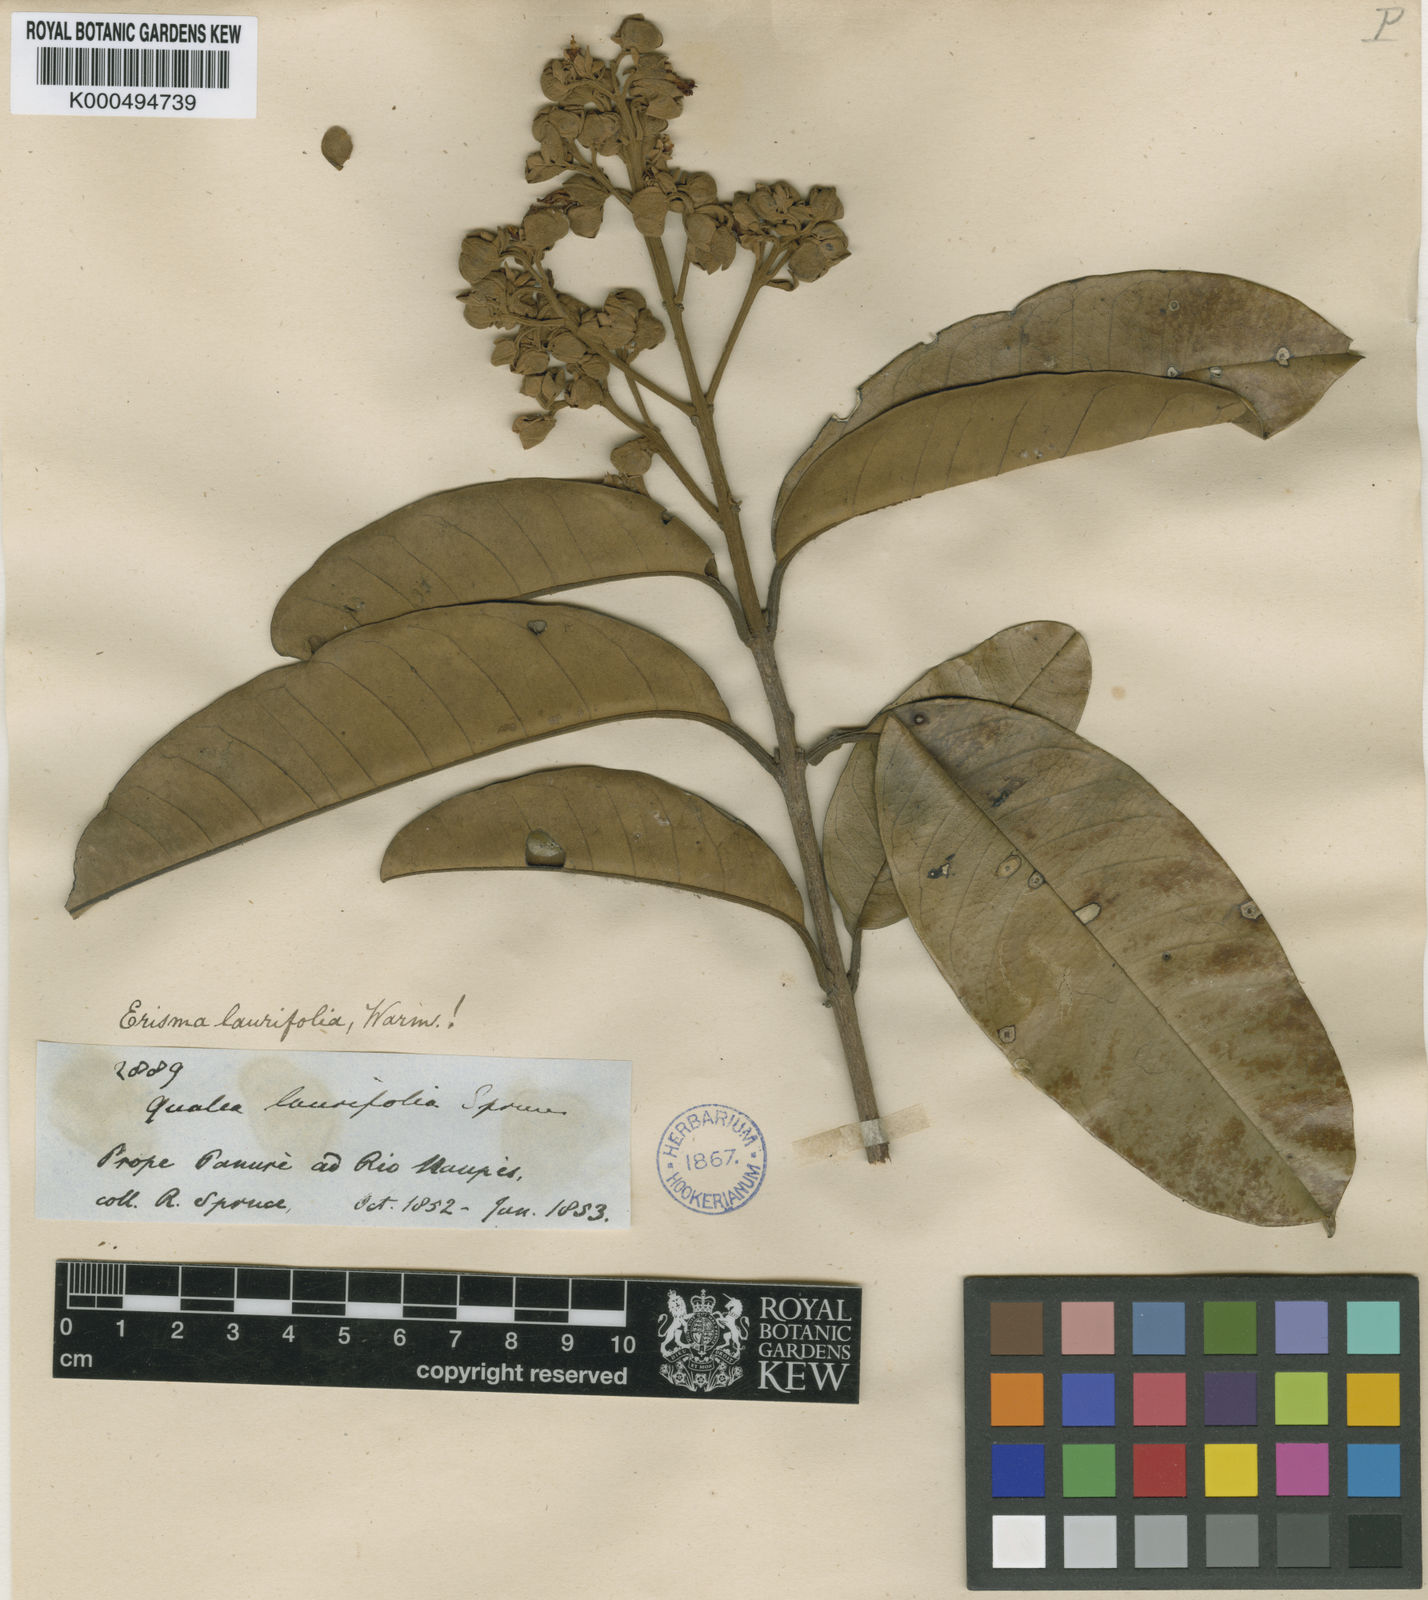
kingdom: Plantae
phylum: Tracheophyta
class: Magnoliopsida
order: Myrtales
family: Vochysiaceae
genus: Erisma
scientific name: Erisma laurifolium
